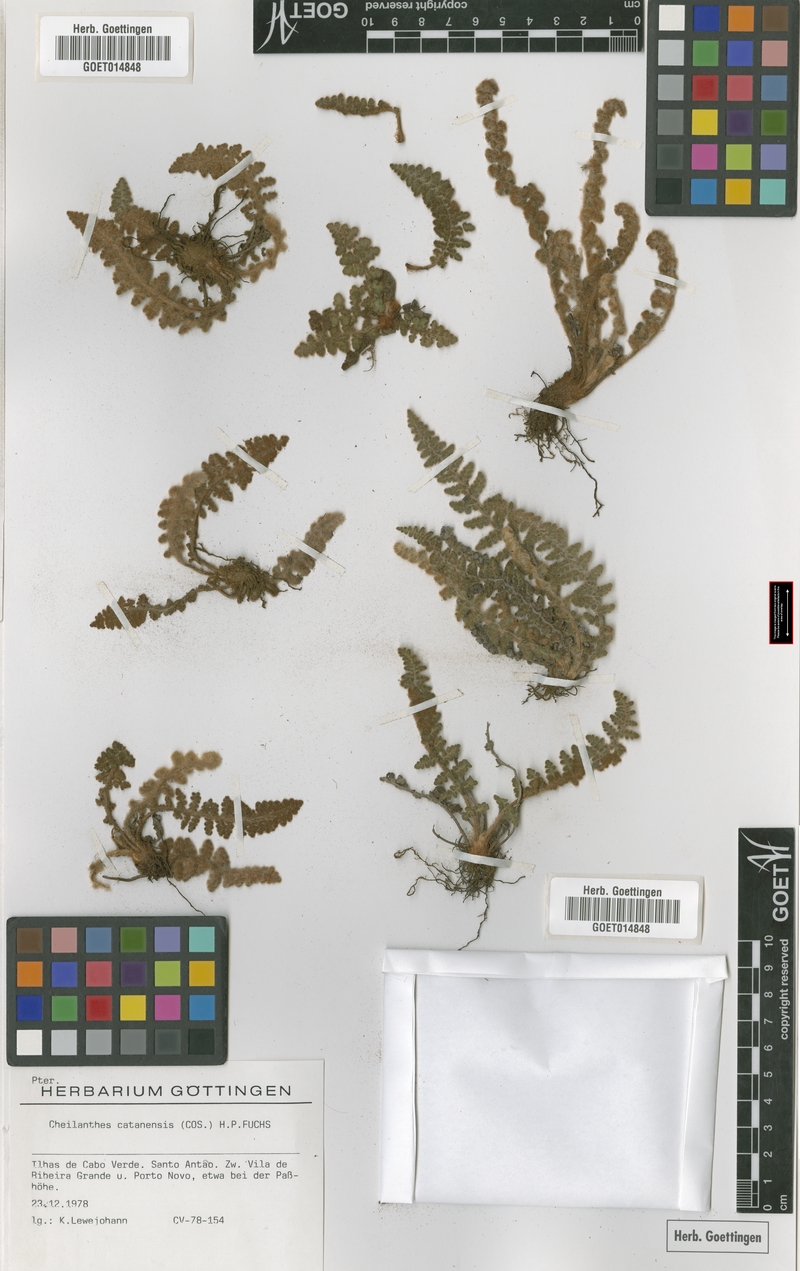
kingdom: Plantae
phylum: Tracheophyta
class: Polypodiopsida
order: Polypodiales
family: Pteridaceae
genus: Cosentinia
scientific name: Cosentinia vellea
